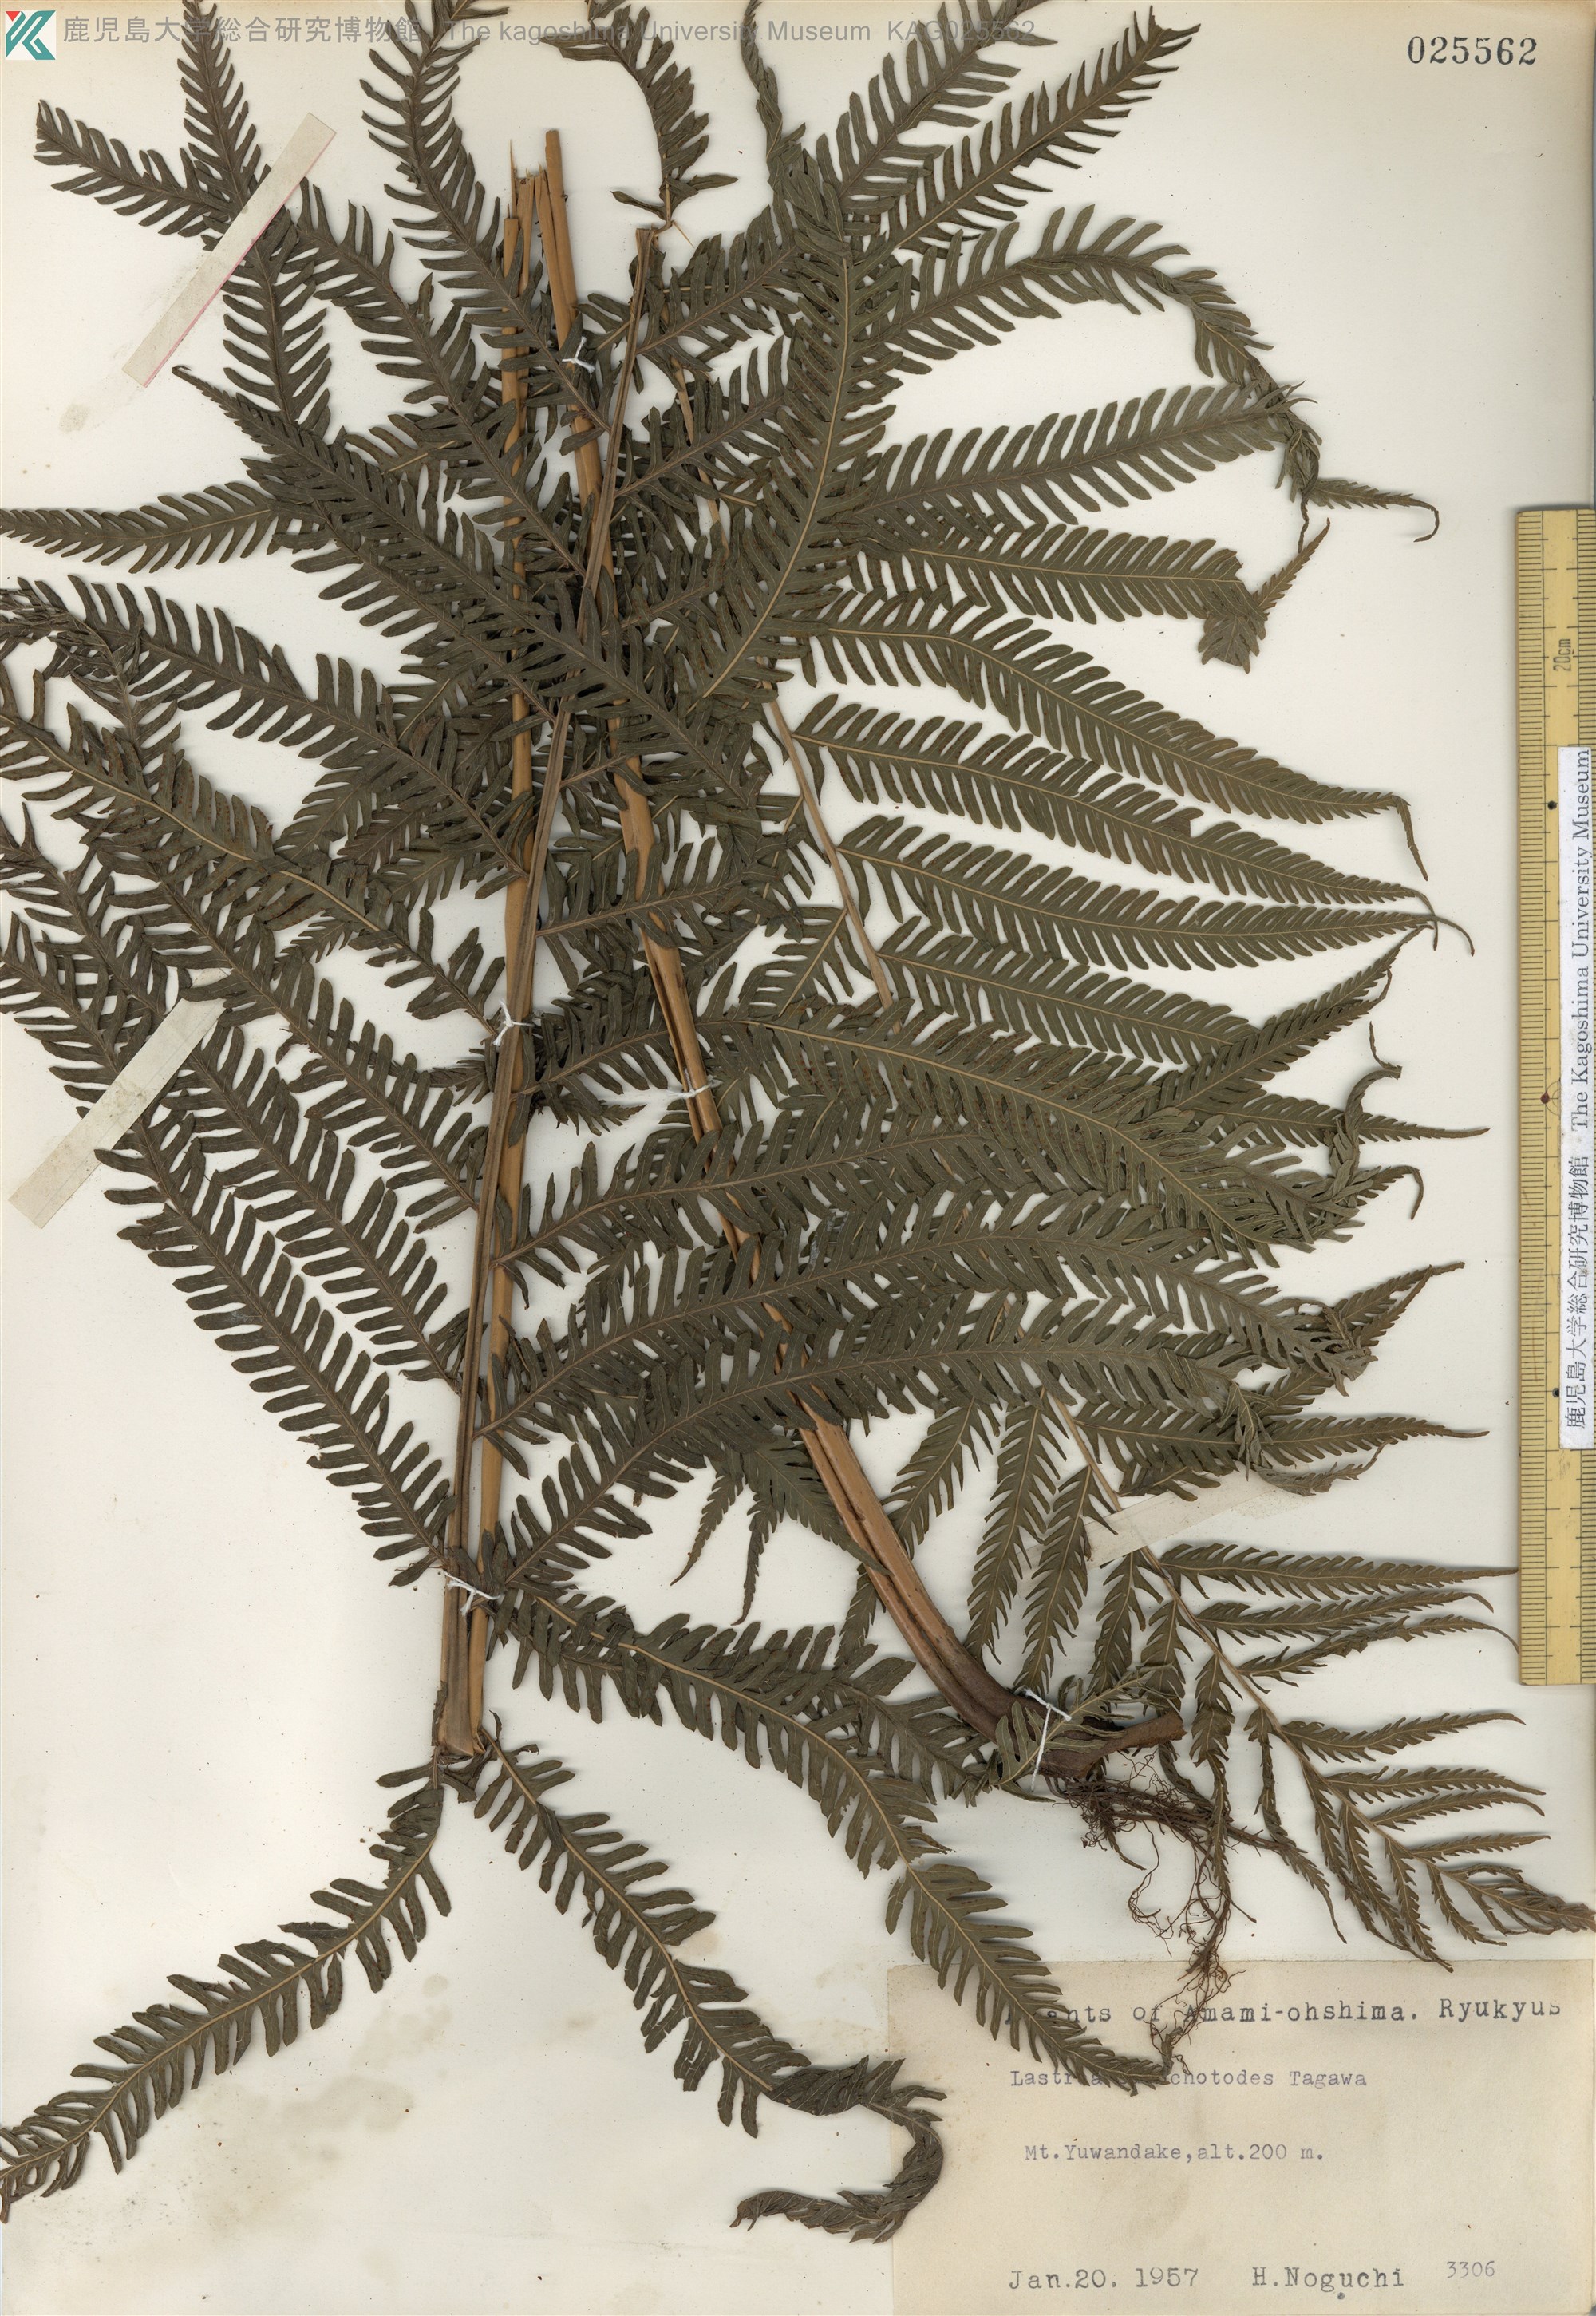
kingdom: Plantae
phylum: Tracheophyta
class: Polypodiopsida
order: Polypodiales
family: Thelypteridaceae
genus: Pseudocyclosorus
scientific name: Pseudocyclosorus esquirolii
